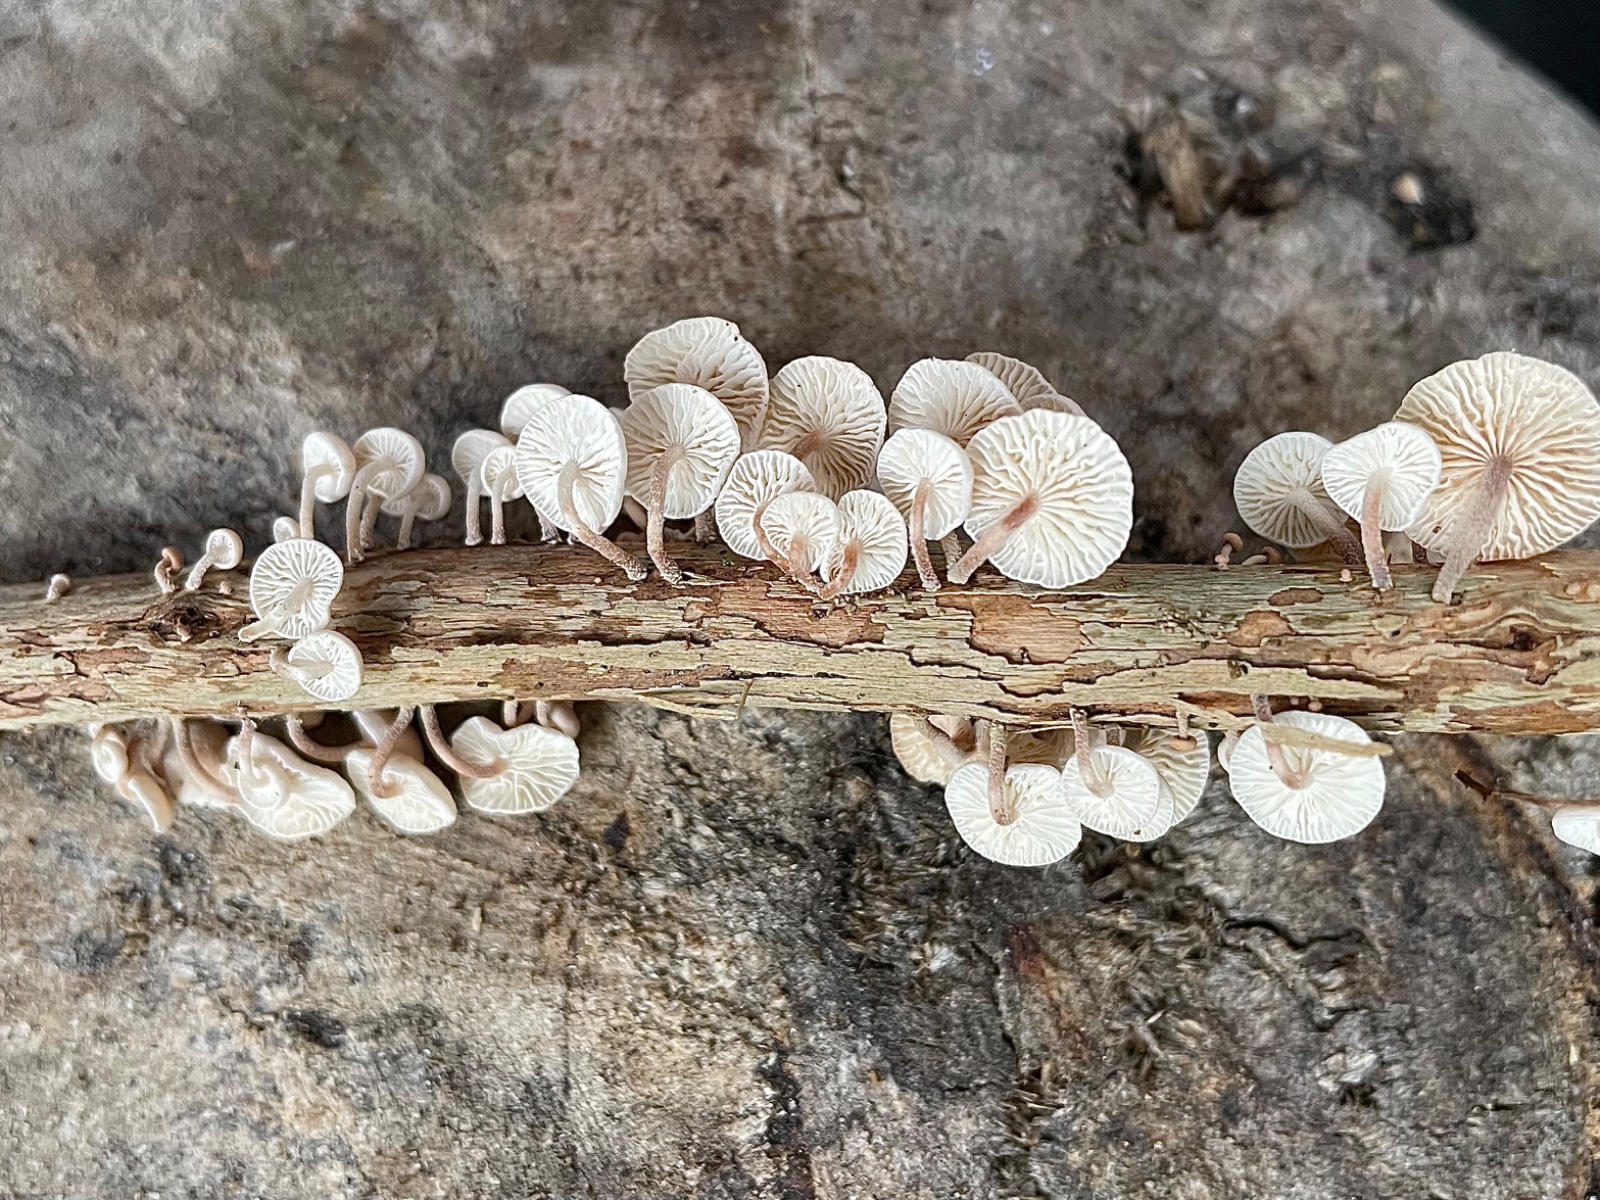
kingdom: Fungi
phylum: Basidiomycota
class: Agaricomycetes
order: Agaricales
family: Omphalotaceae
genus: Collybiopsis
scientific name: Collybiopsis ramealis
